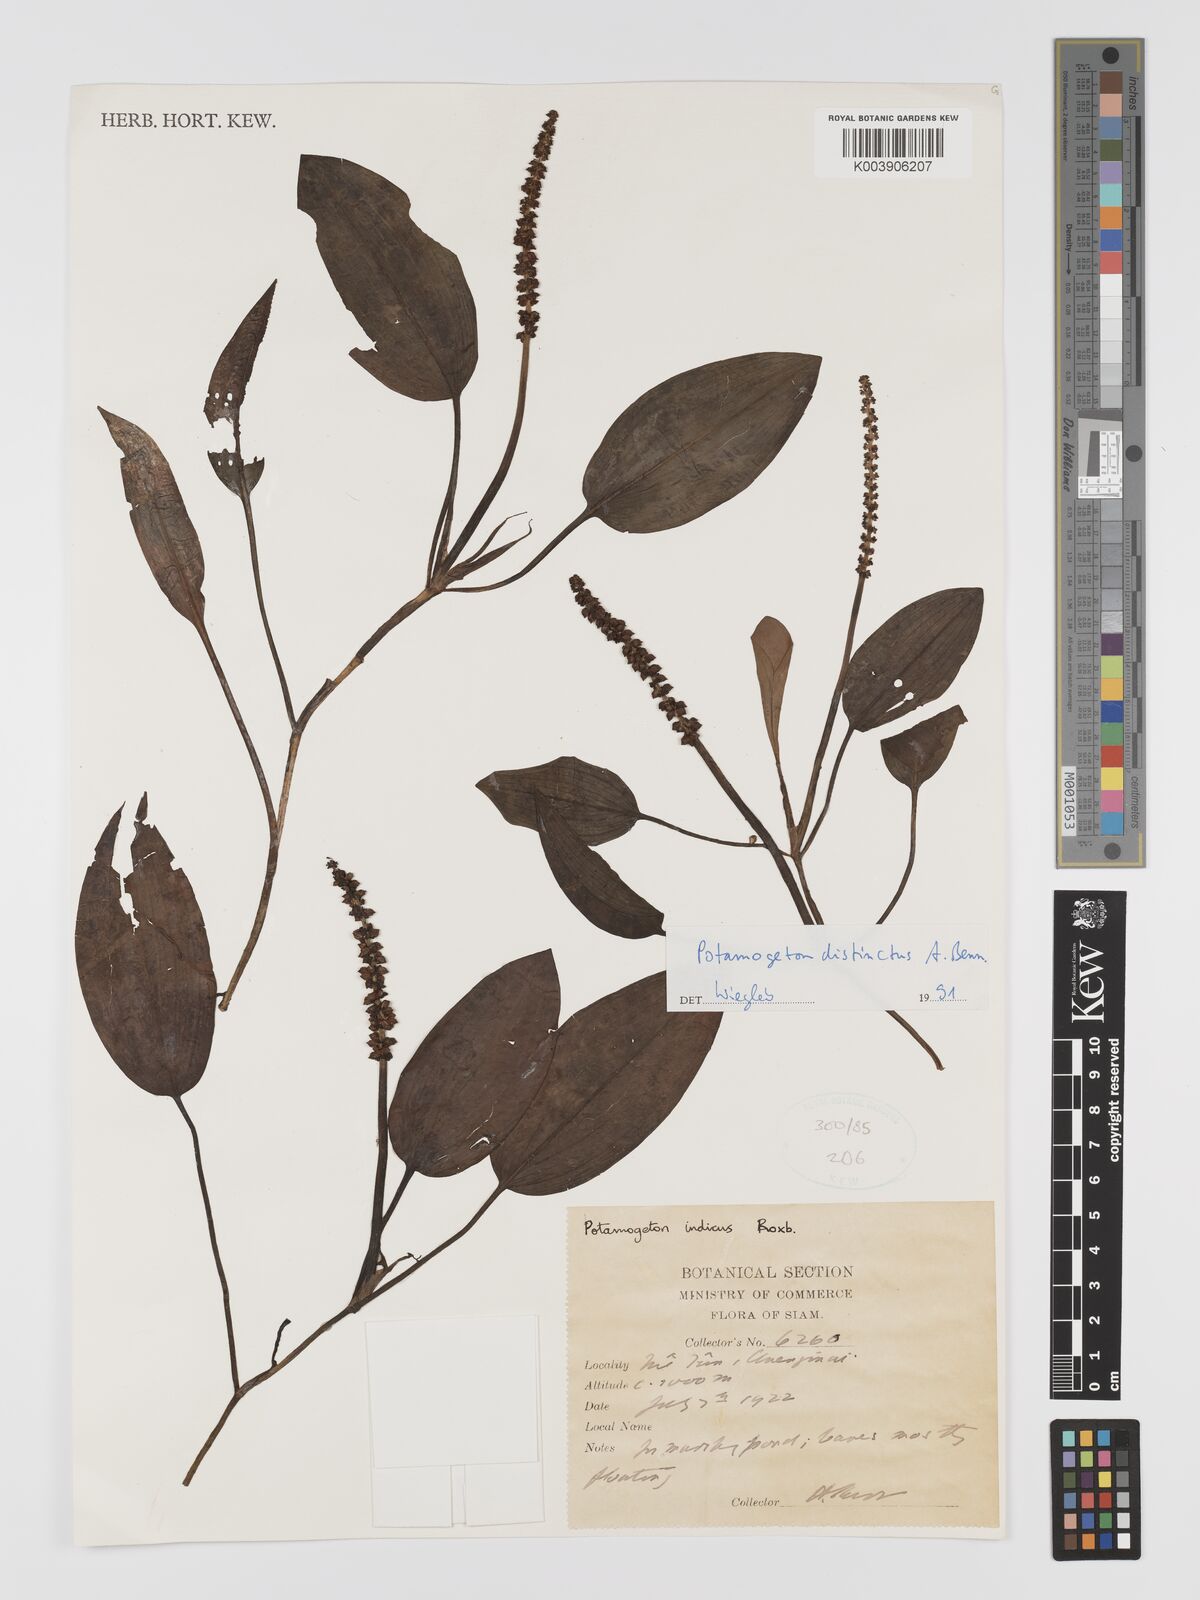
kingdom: Plantae
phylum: Tracheophyta
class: Liliopsida
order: Alismatales
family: Potamogetonaceae
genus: Potamogeton
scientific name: Potamogeton distinctus
